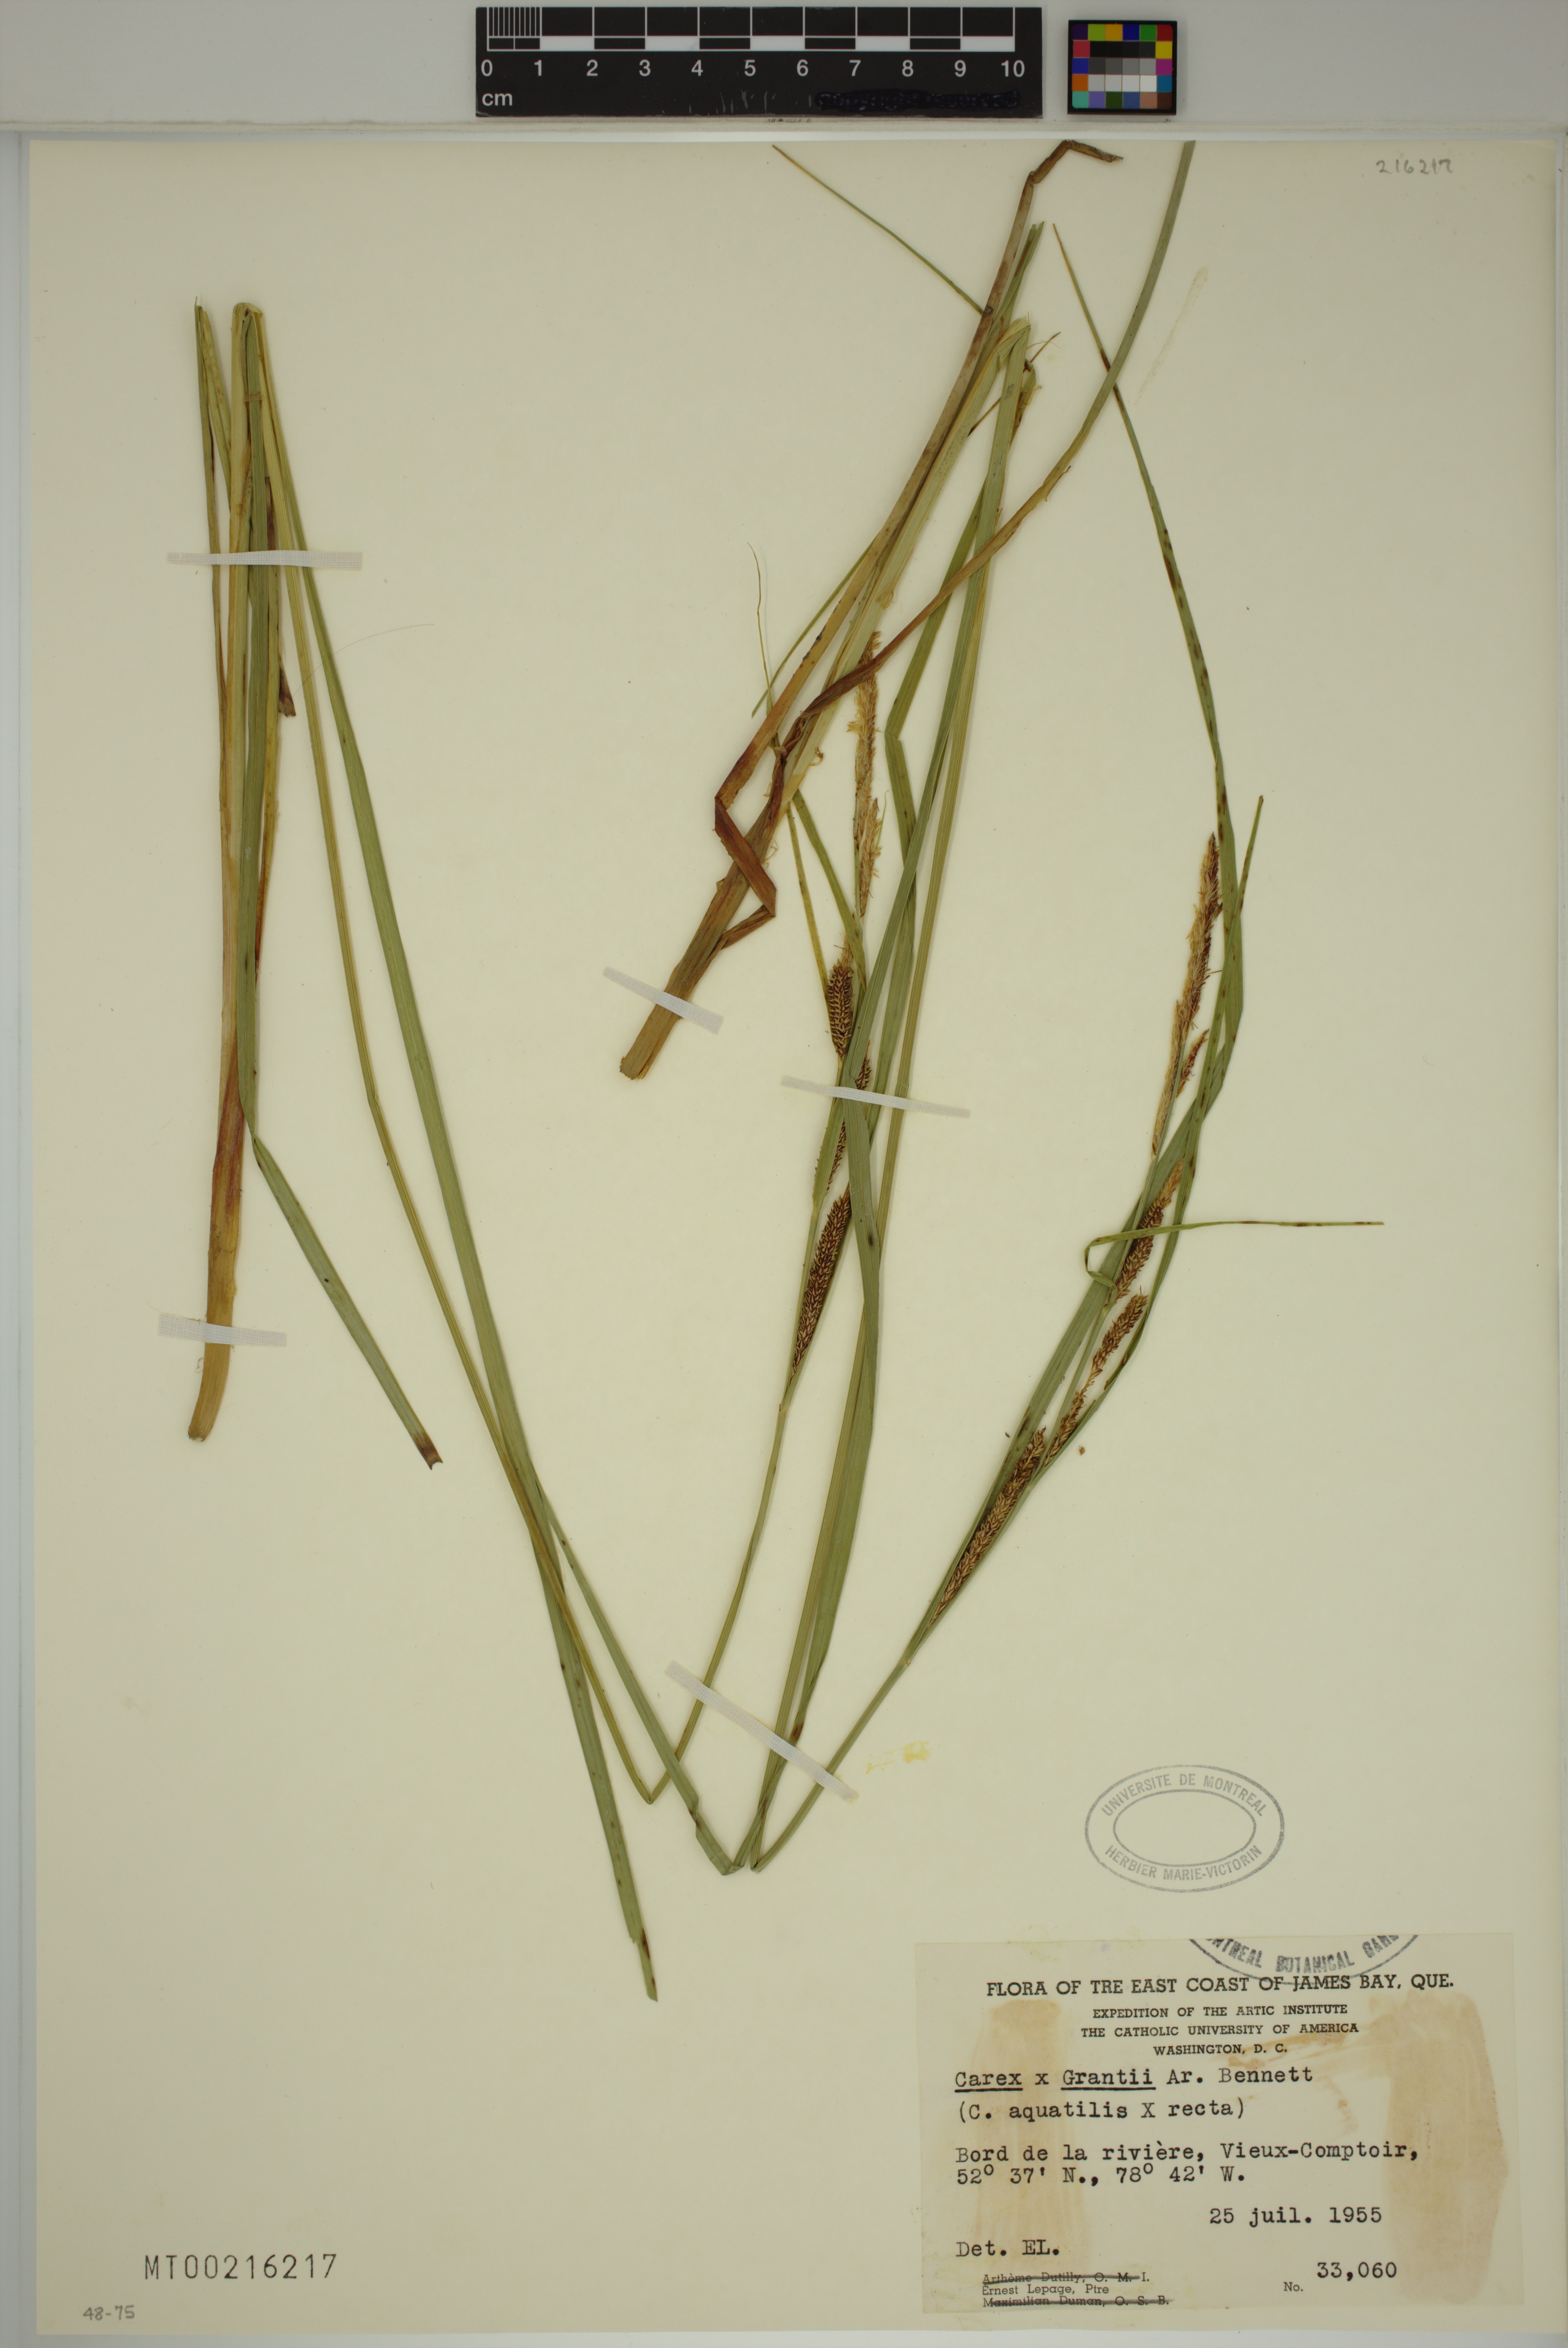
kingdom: Plantae
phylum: Tracheophyta
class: Liliopsida
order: Poales
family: Cyperaceae
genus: Carex
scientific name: Carex grantii
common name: Grant's sedge
